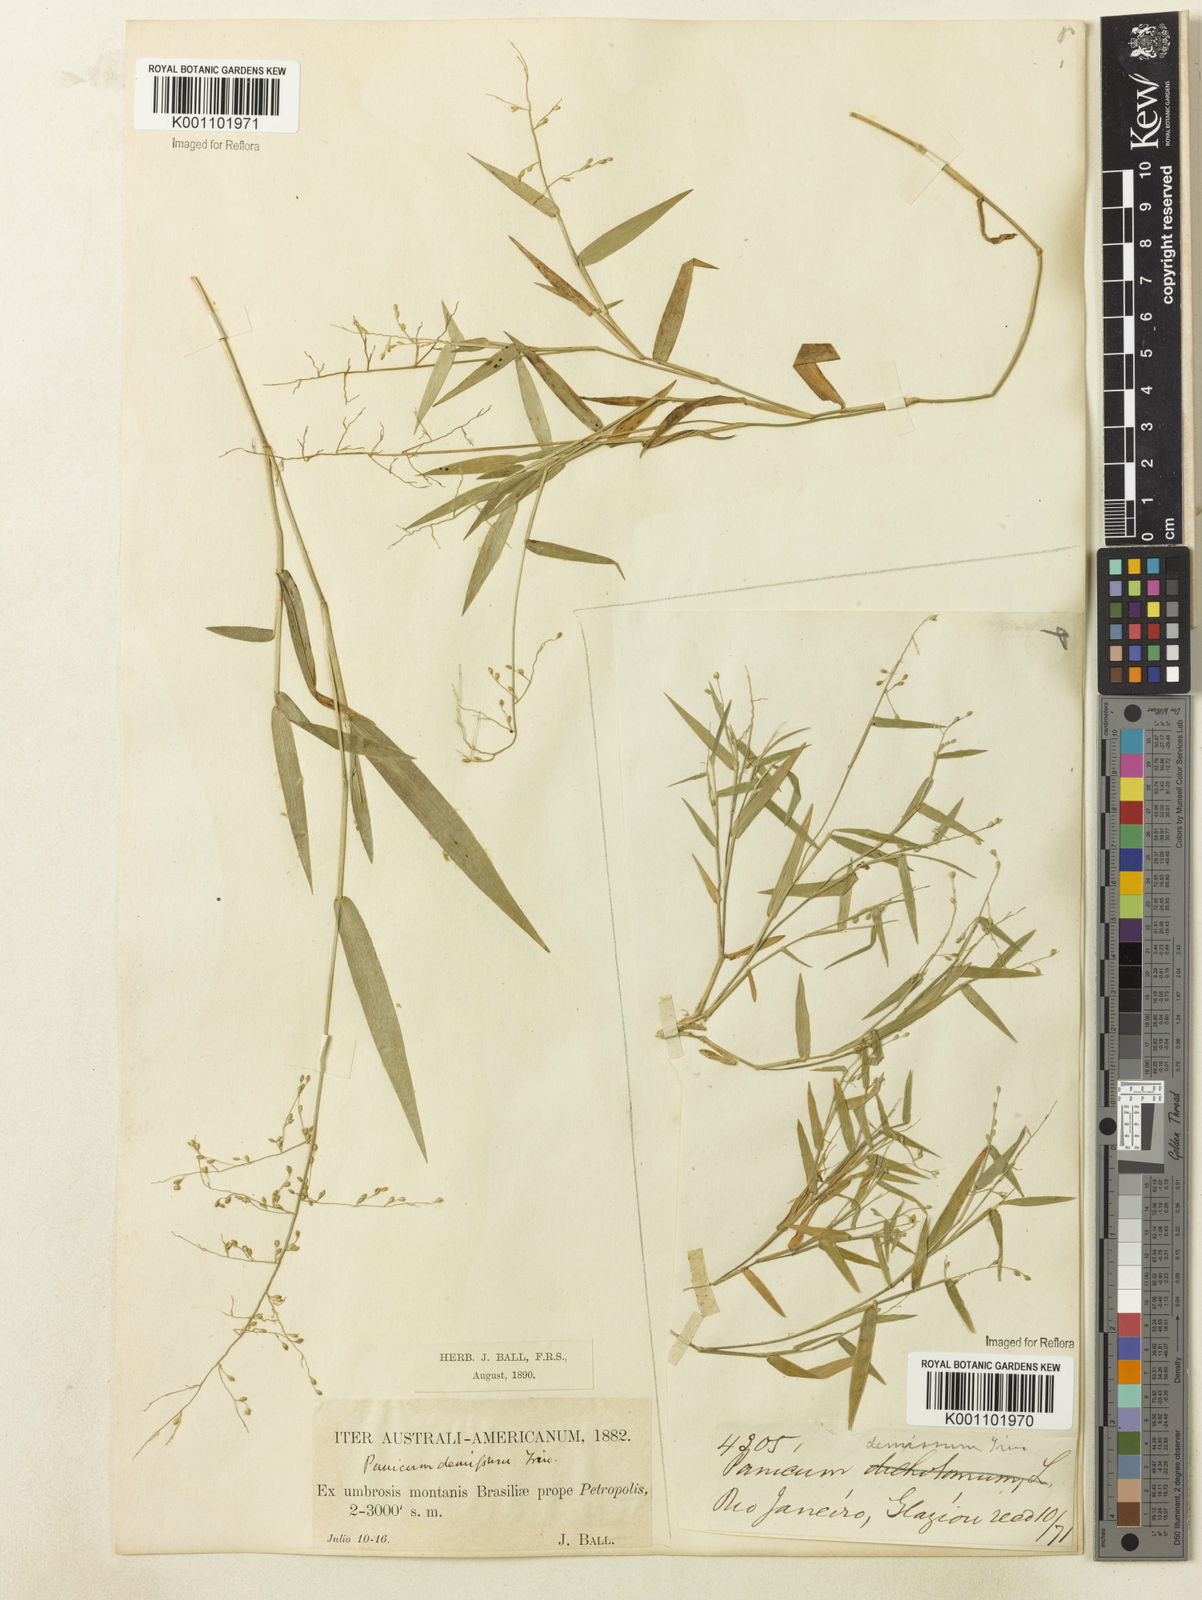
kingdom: Plantae
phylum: Tracheophyta
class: Liliopsida
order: Poales
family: Poaceae
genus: Dichanthelium
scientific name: Dichanthelium sabulorum
